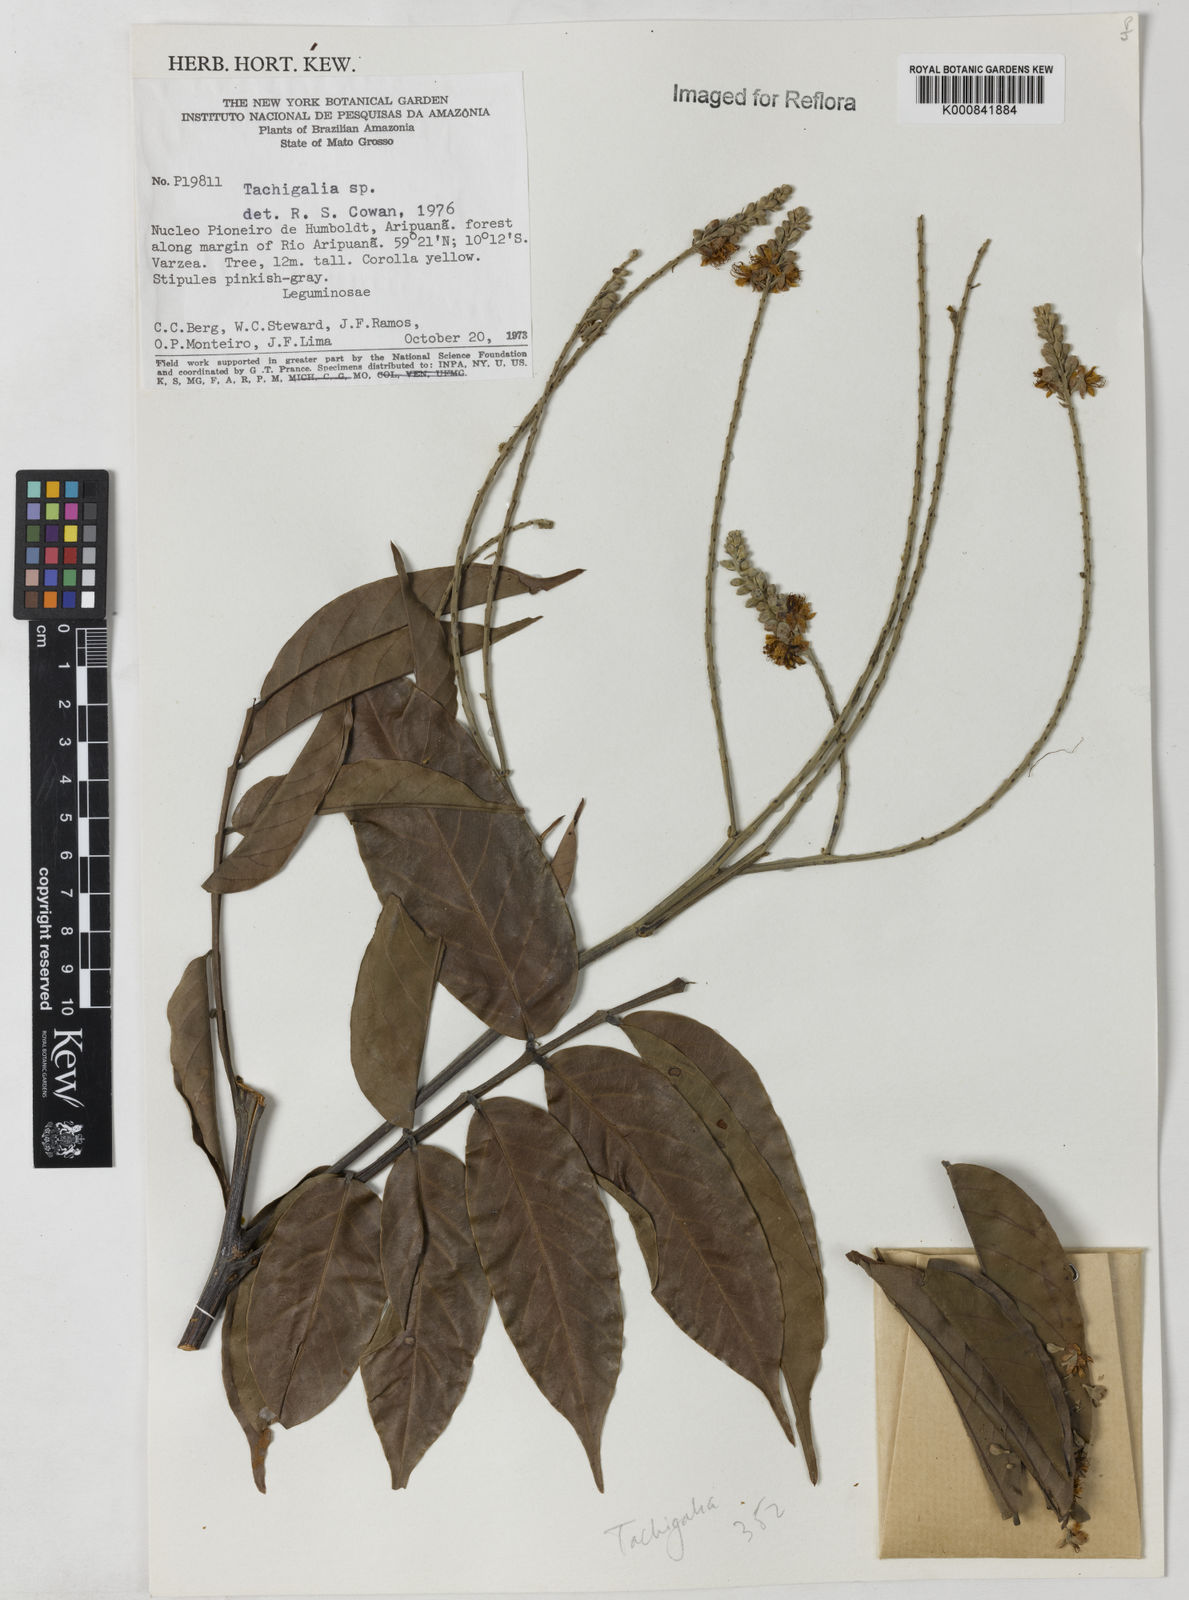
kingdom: Plantae
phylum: Tracheophyta
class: Magnoliopsida
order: Fabales
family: Fabaceae
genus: Tachigali
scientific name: Tachigali
